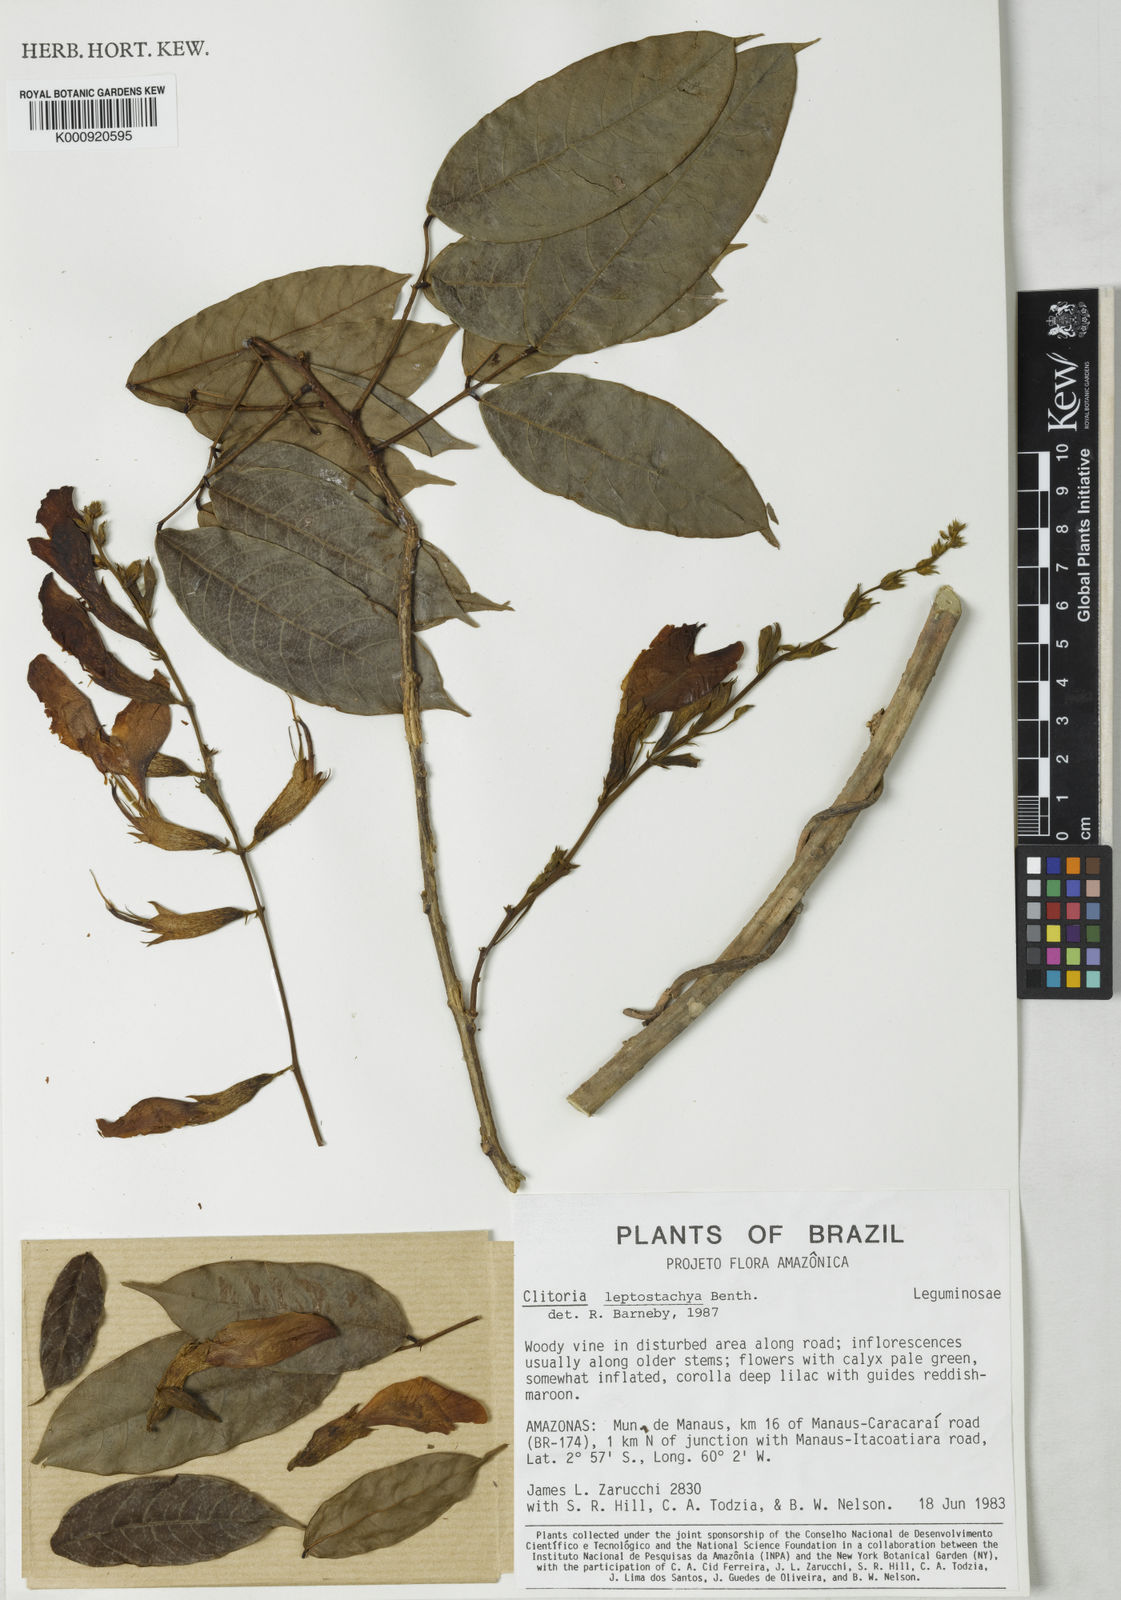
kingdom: Plantae
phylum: Tracheophyta
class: Magnoliopsida
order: Fabales
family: Fabaceae
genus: Clitoria
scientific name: Clitoria leptostachya
